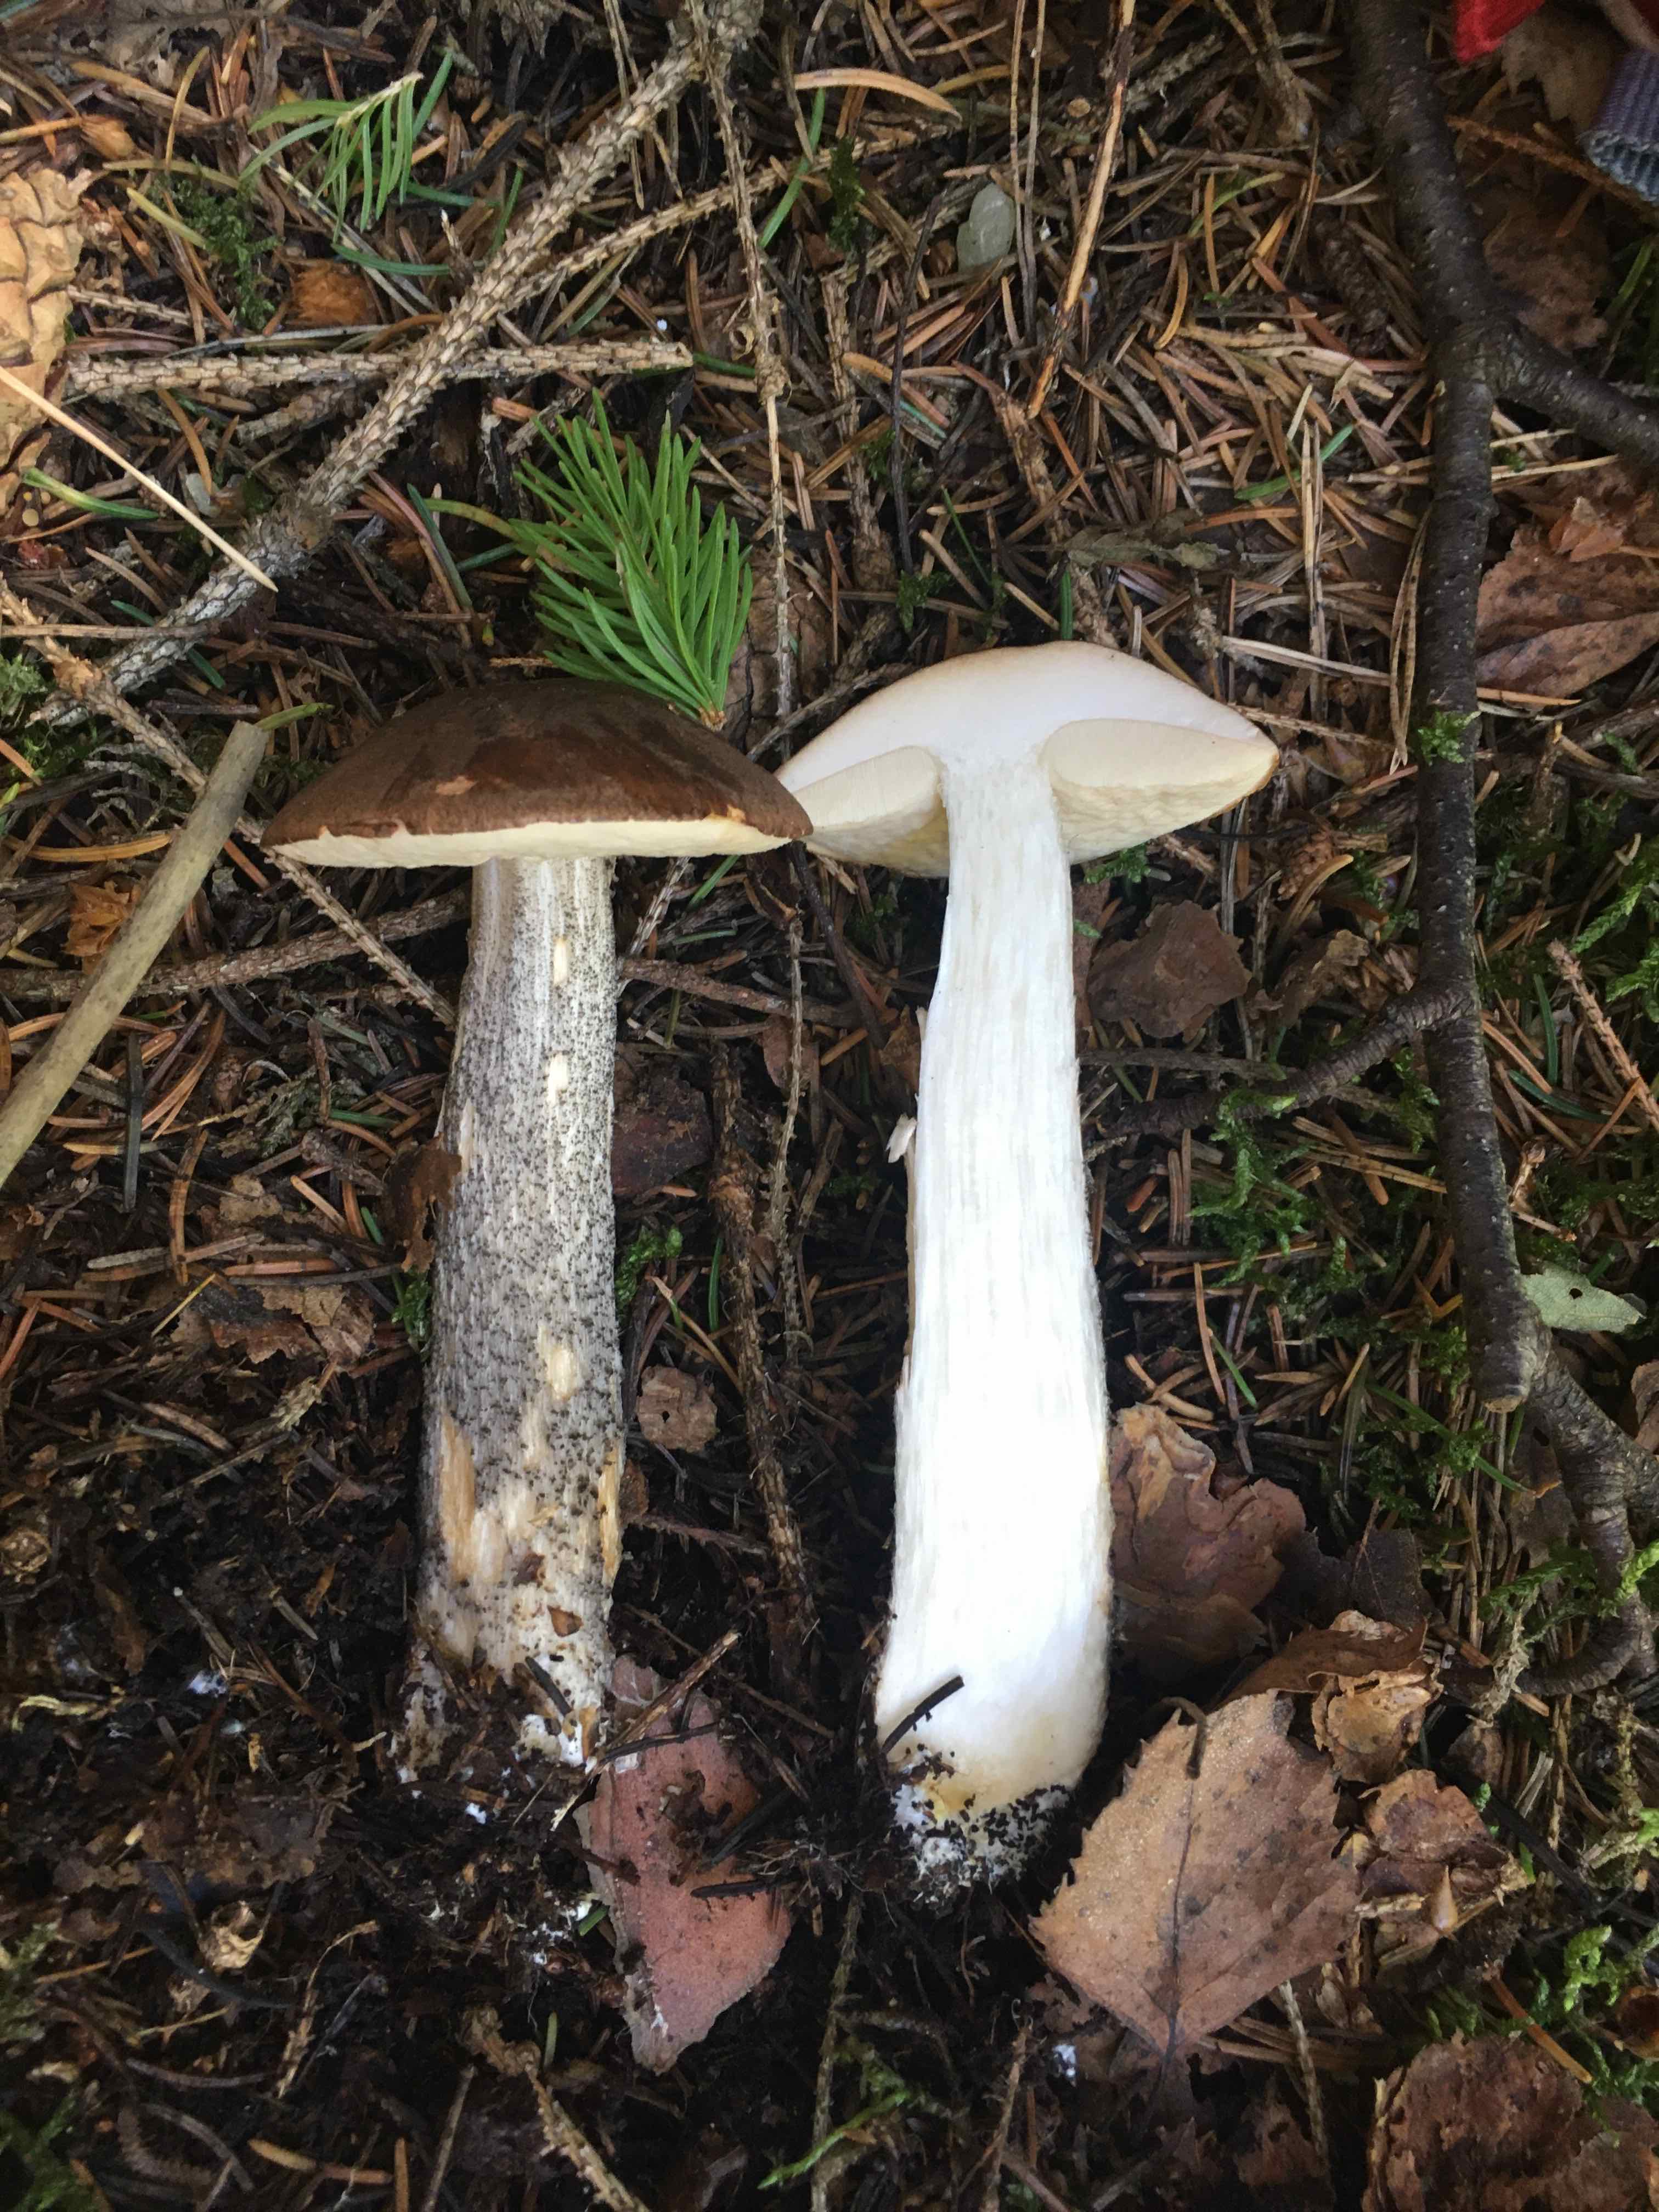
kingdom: Fungi
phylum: Basidiomycota
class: Agaricomycetes
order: Boletales
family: Boletaceae
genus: Leccinum
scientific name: Leccinum scabrum
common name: brun skælrørhat
